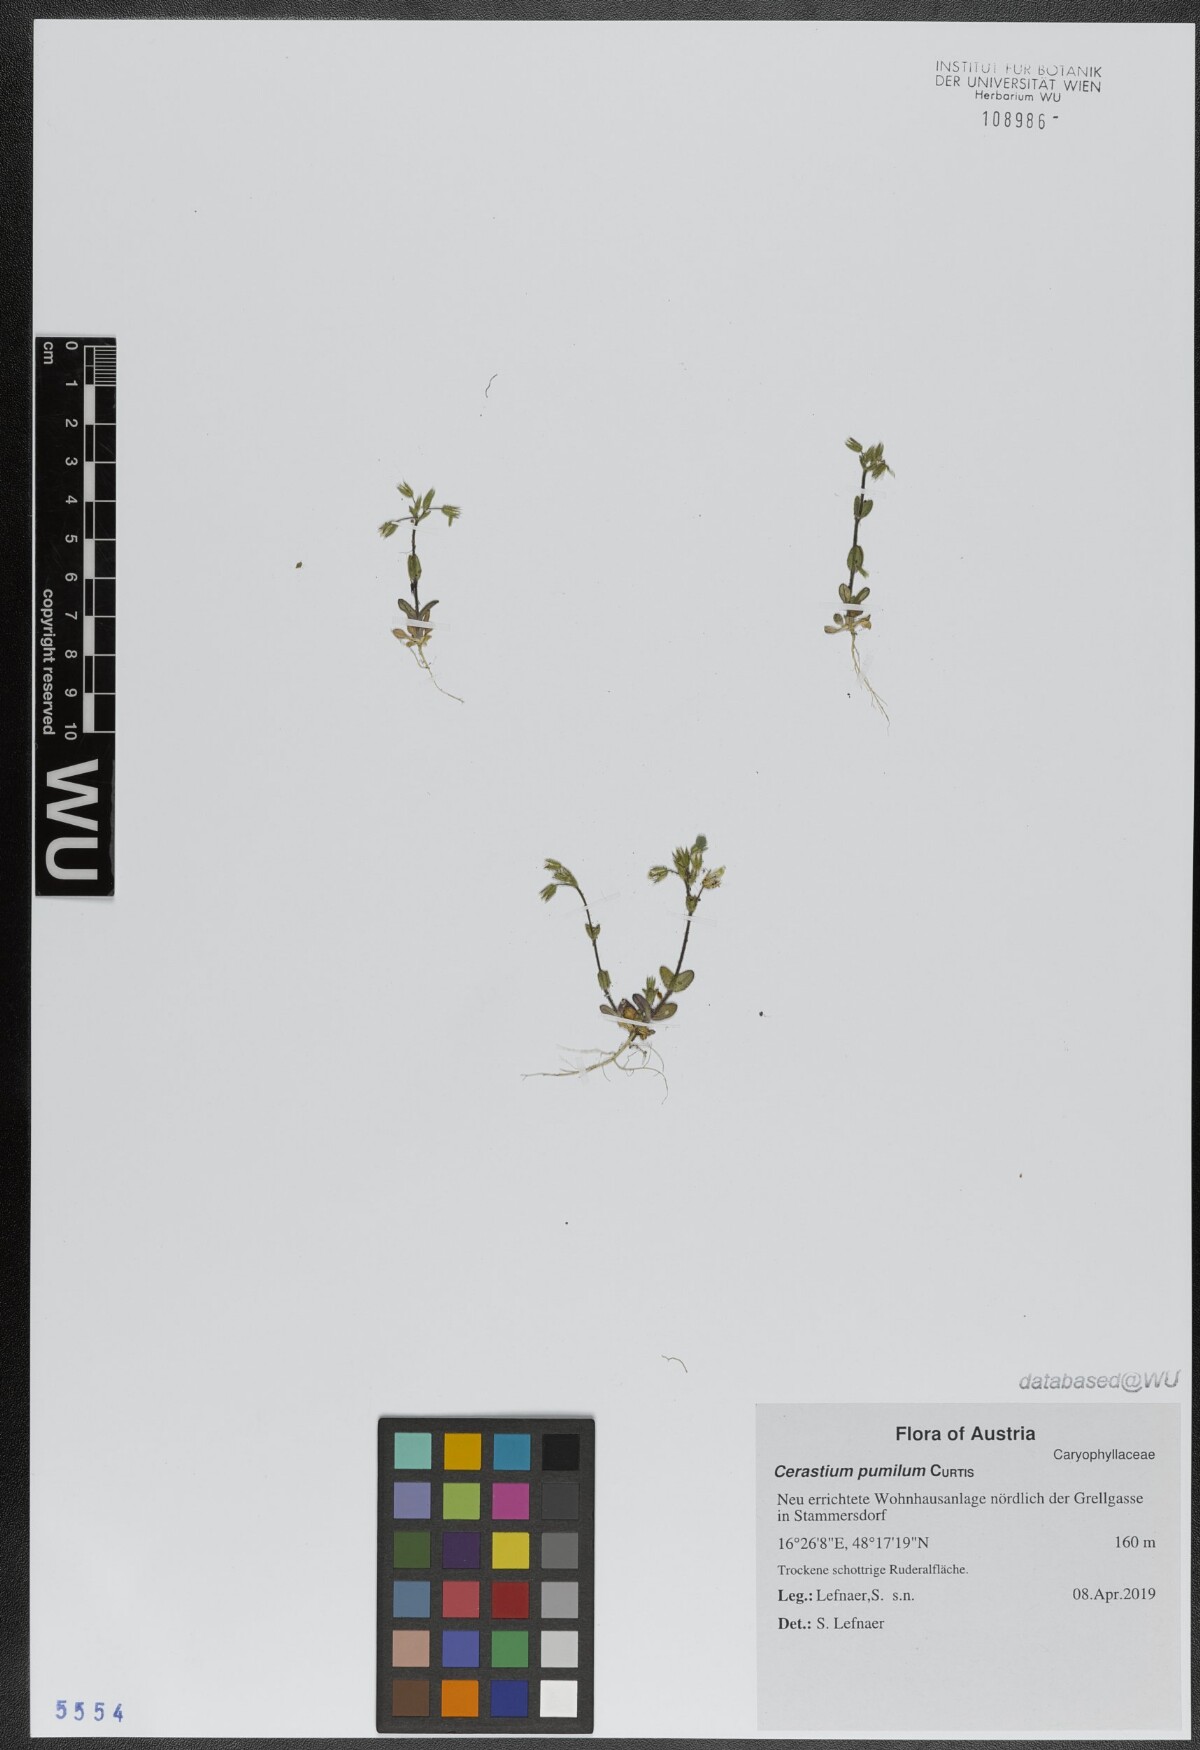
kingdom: Plantae
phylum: Tracheophyta
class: Magnoliopsida
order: Caryophyllales
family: Caryophyllaceae
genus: Cerastium
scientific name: Cerastium pumilum
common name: Dwarf mouse-ear
